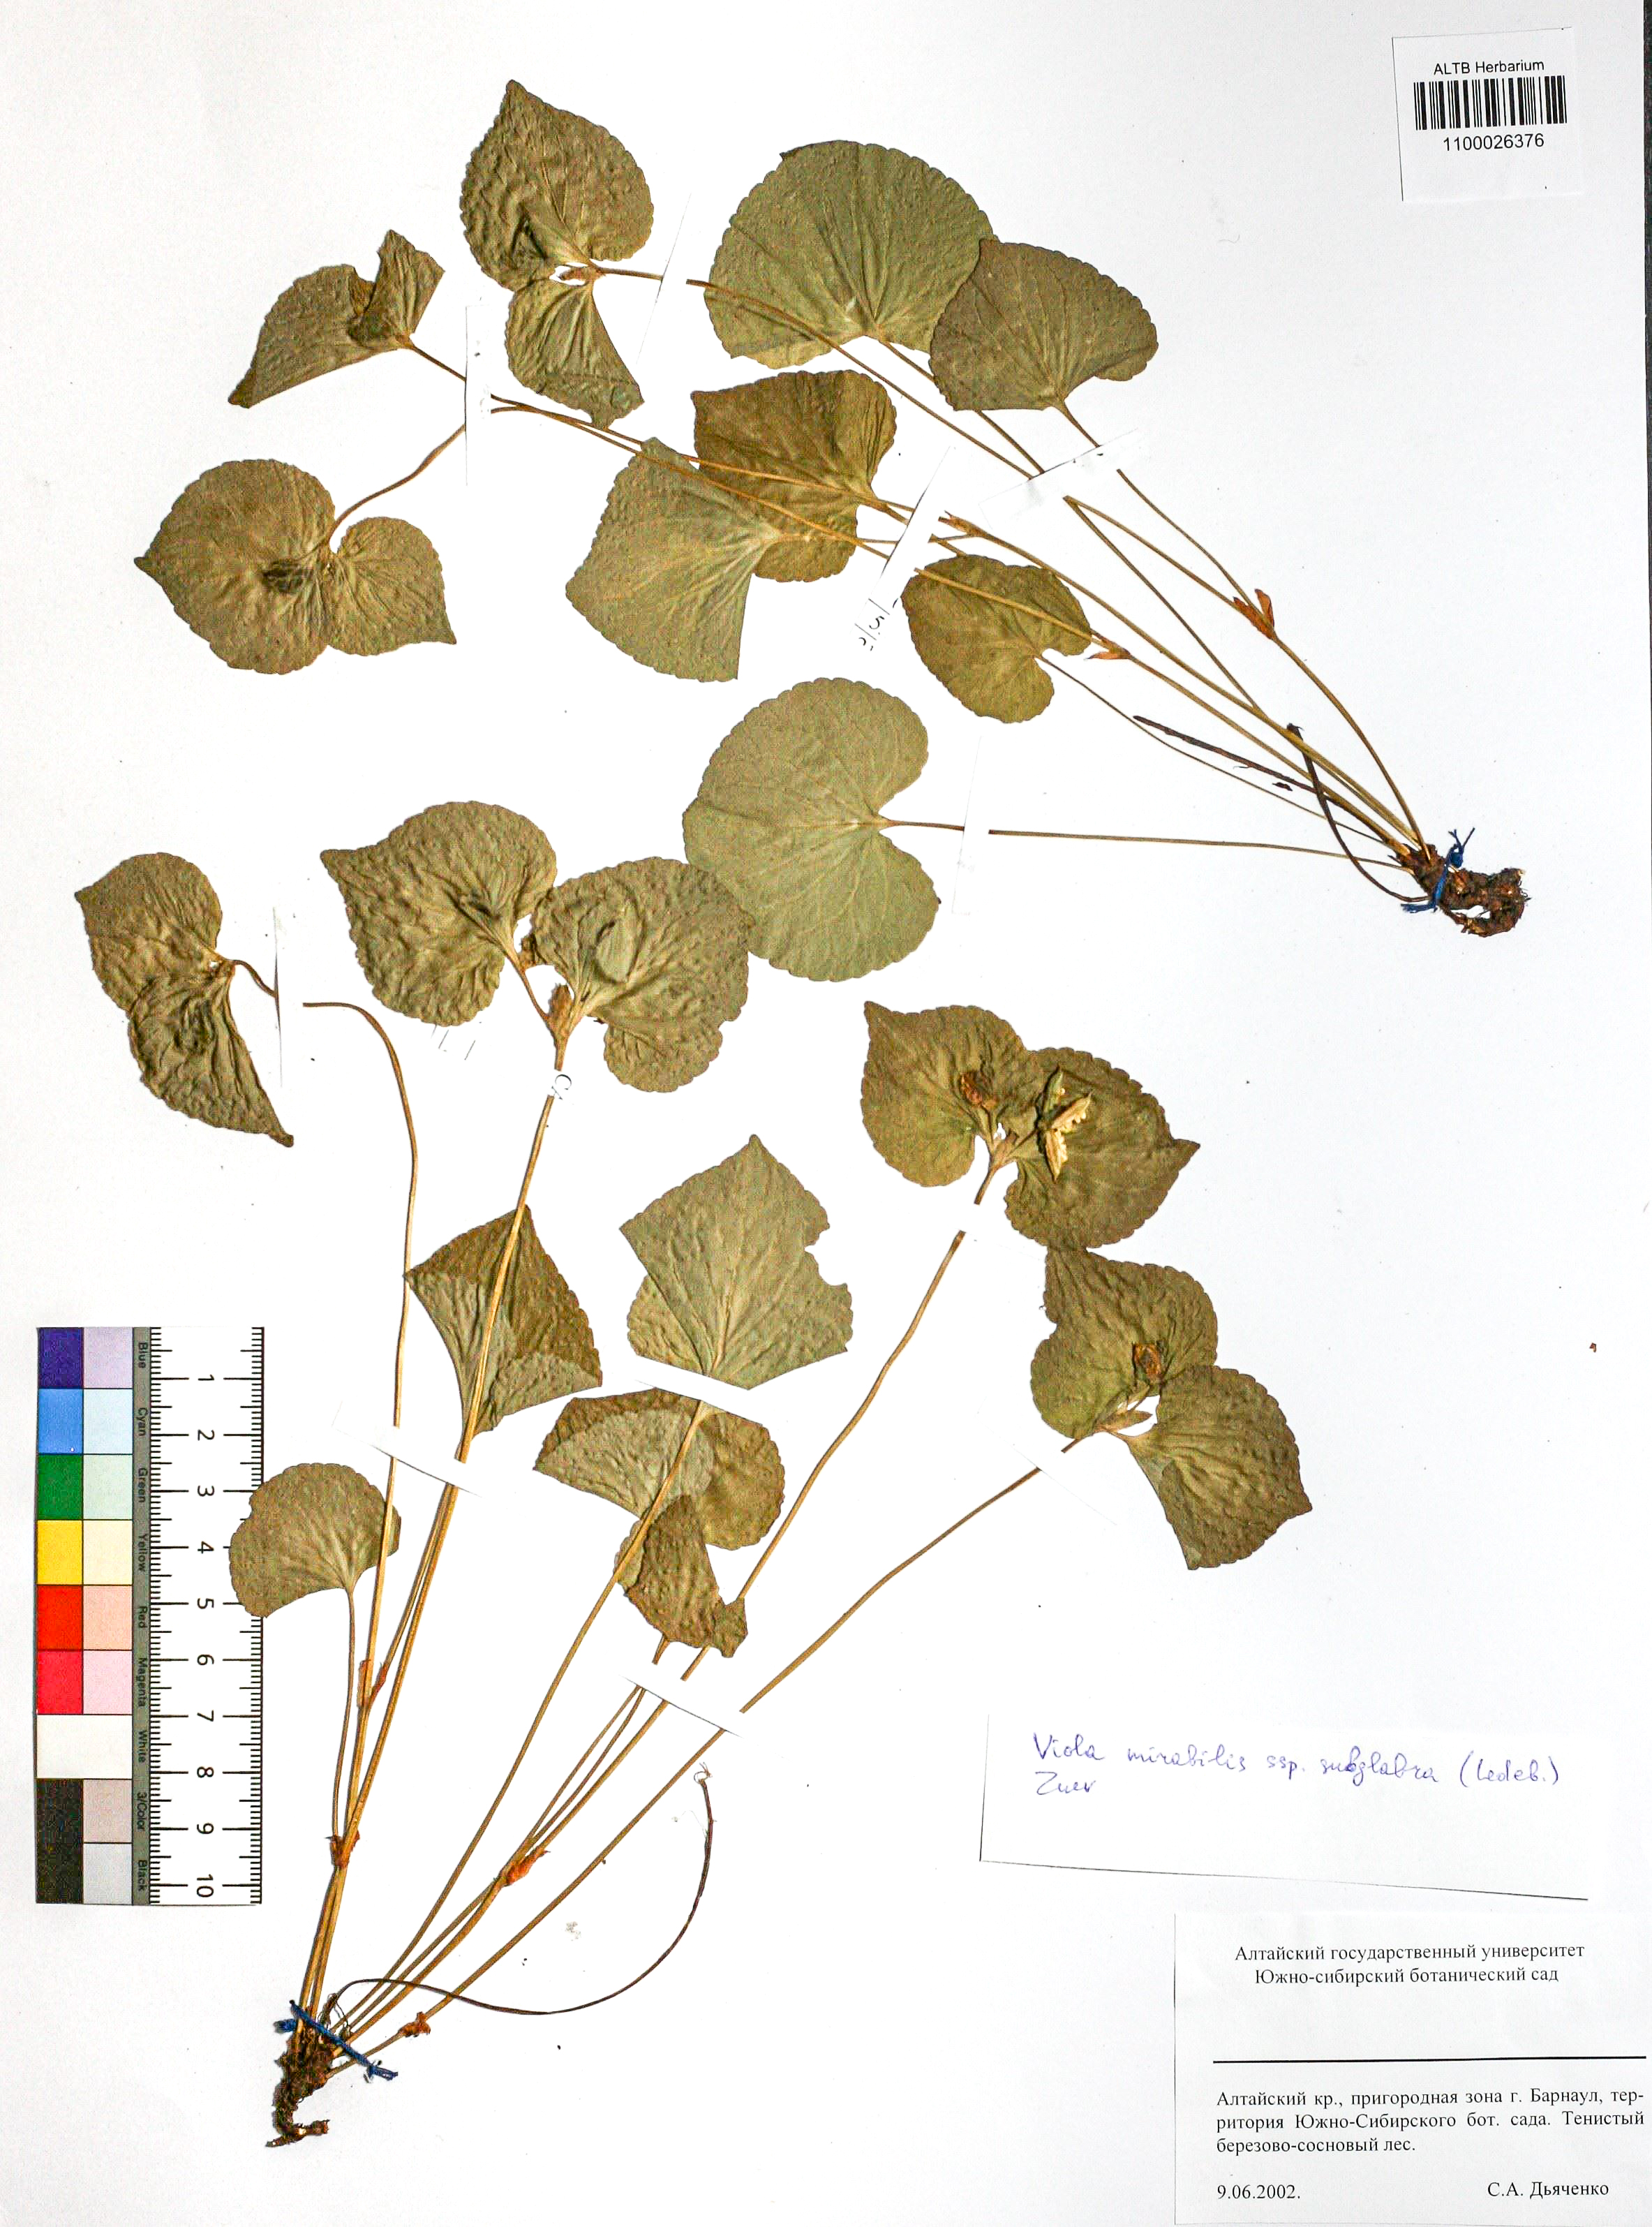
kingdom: Plantae
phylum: Tracheophyta
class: Magnoliopsida
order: Malpighiales
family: Violaceae
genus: Viola
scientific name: Viola mirabilis
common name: Wonder violet
